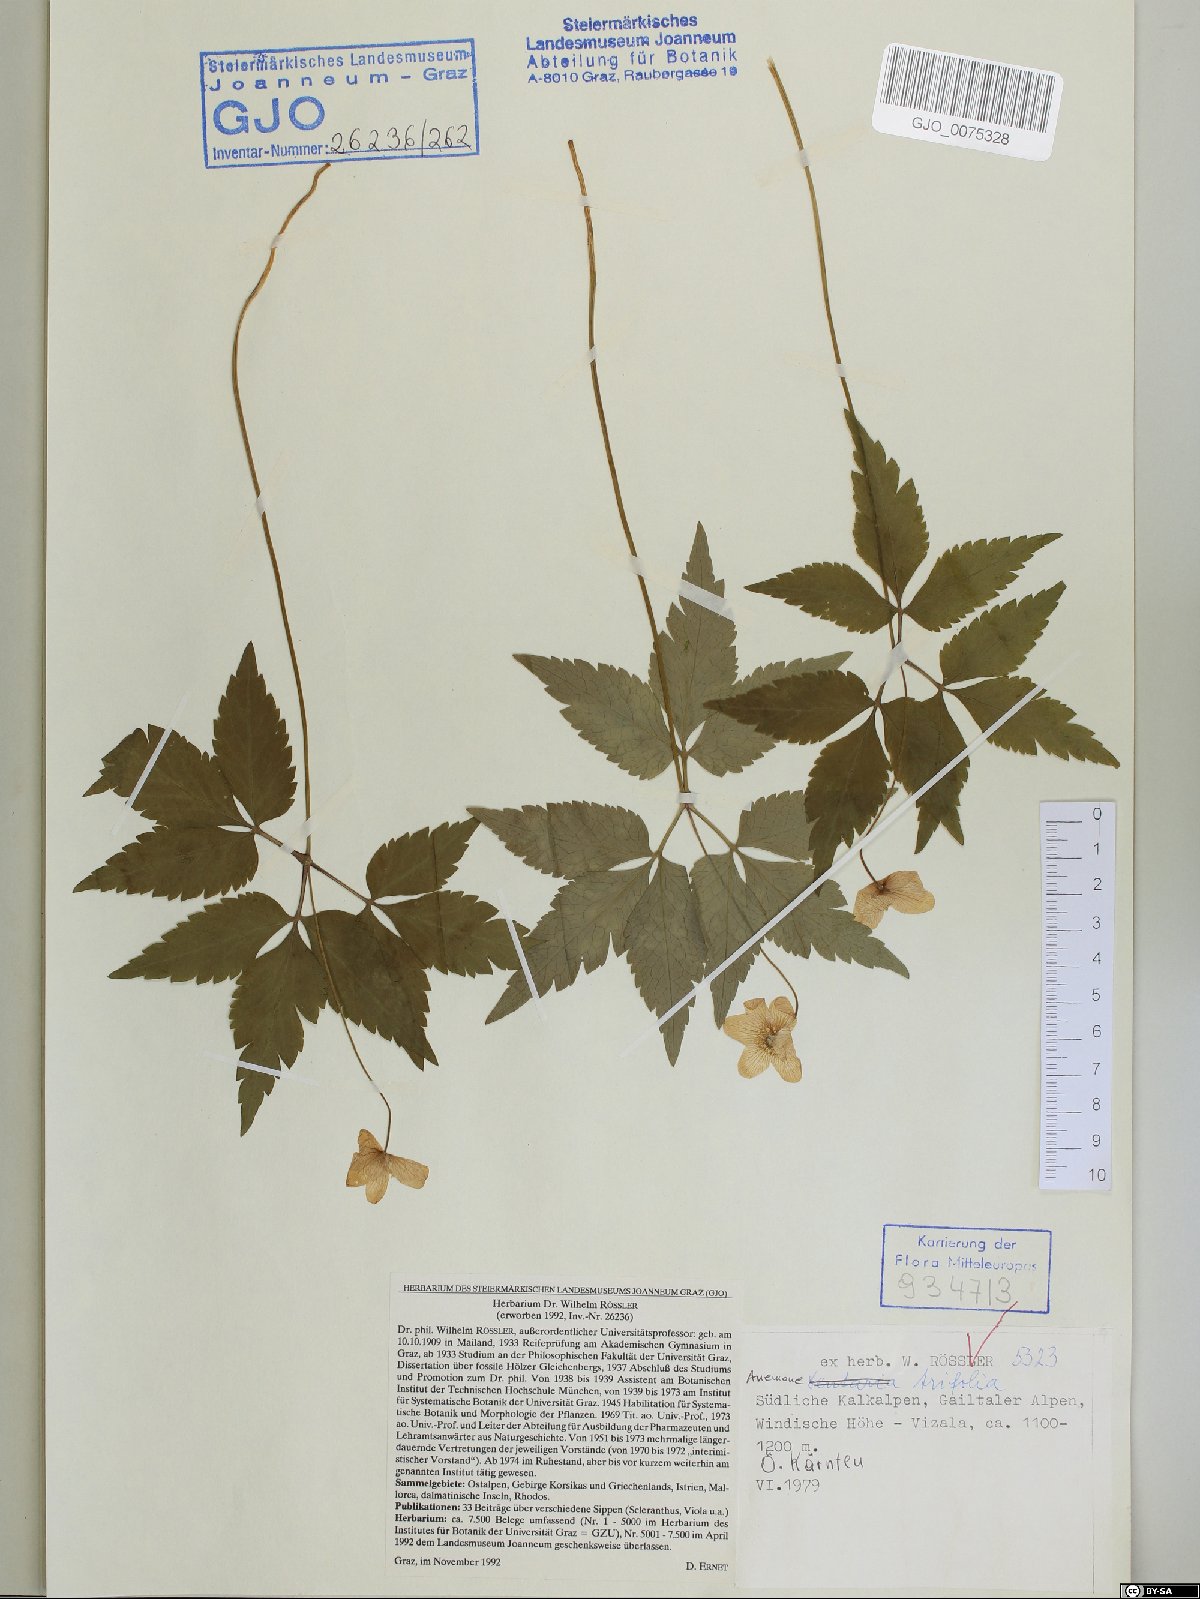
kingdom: Plantae
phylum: Tracheophyta
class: Magnoliopsida
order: Ranunculales
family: Ranunculaceae
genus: Anemone
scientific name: Anemone trifolia
